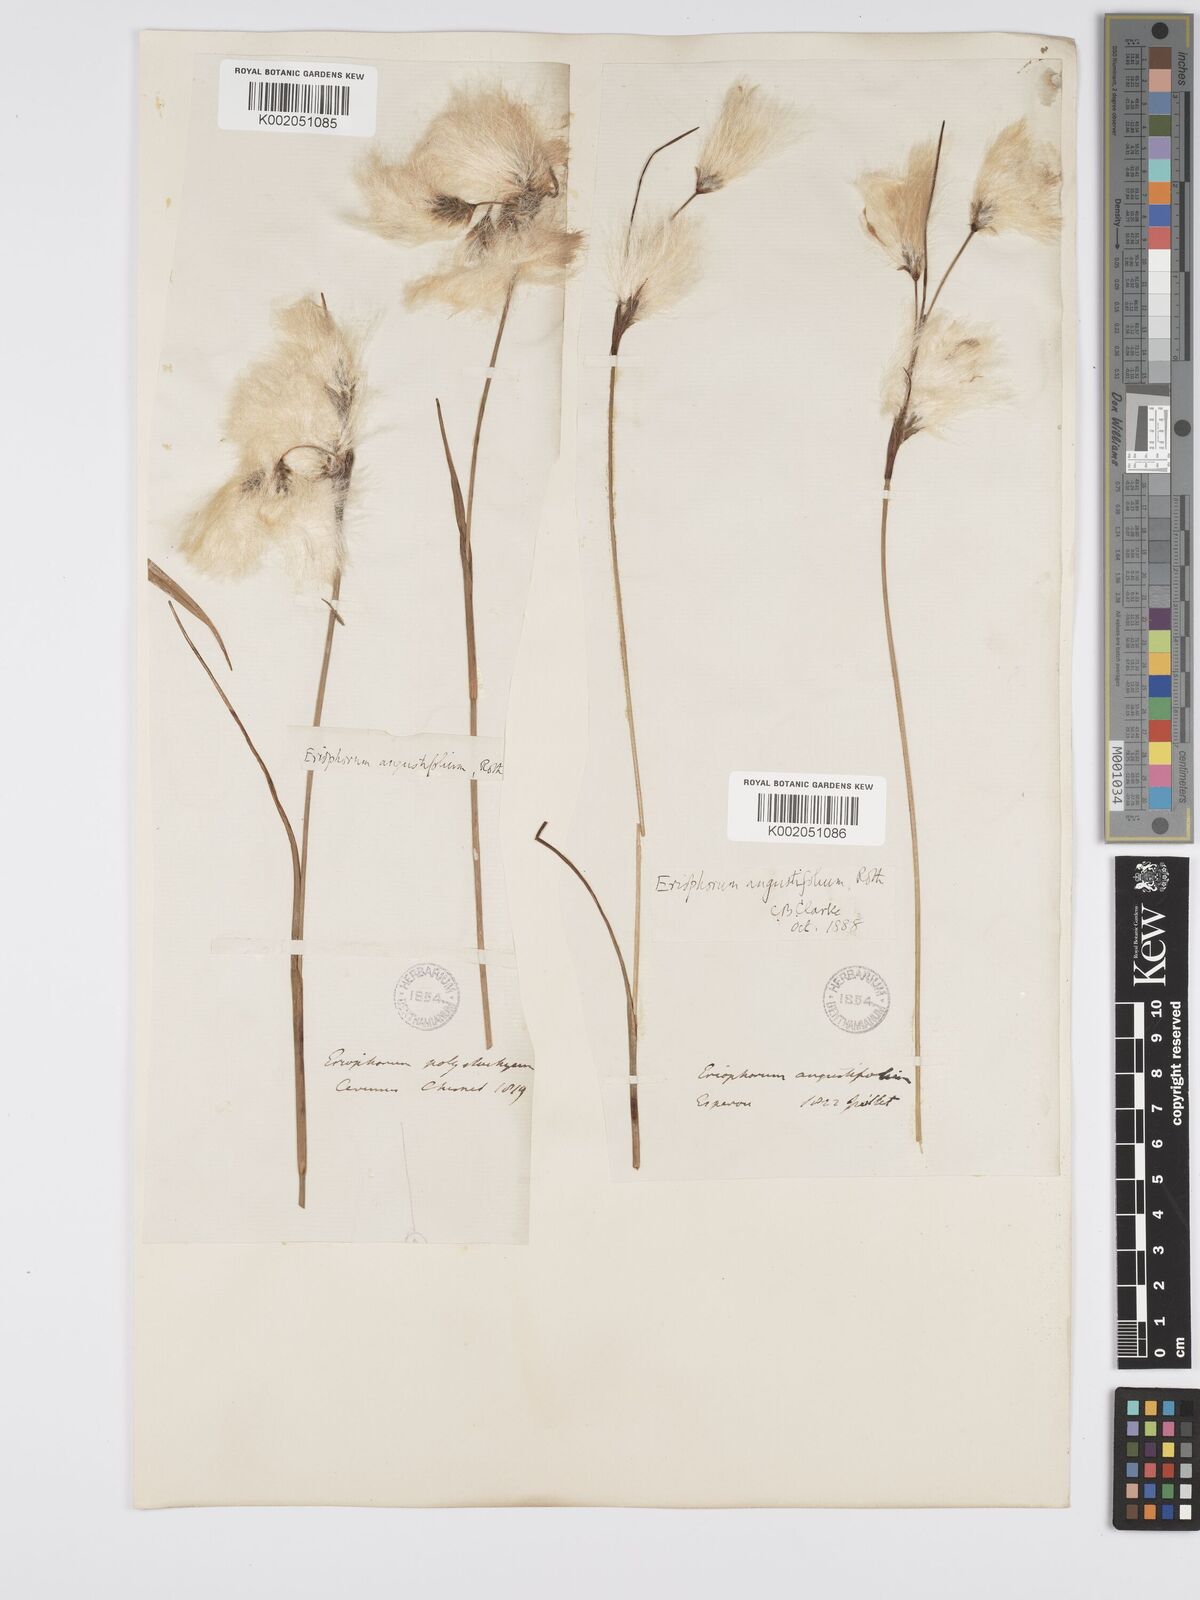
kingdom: Plantae
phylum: Tracheophyta
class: Liliopsida
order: Poales
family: Cyperaceae
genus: Eriophorum
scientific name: Eriophorum angustifolium
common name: Common cottongrass
